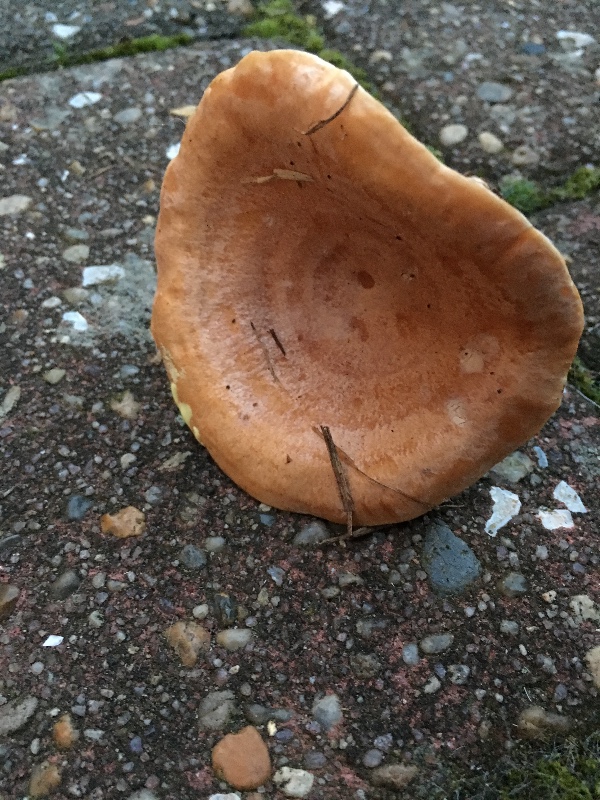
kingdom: Fungi
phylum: Basidiomycota
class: Agaricomycetes
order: Russulales
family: Russulaceae
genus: Lactarius
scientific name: Lactarius chrysorrheus
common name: svovlmælket mælkehat
